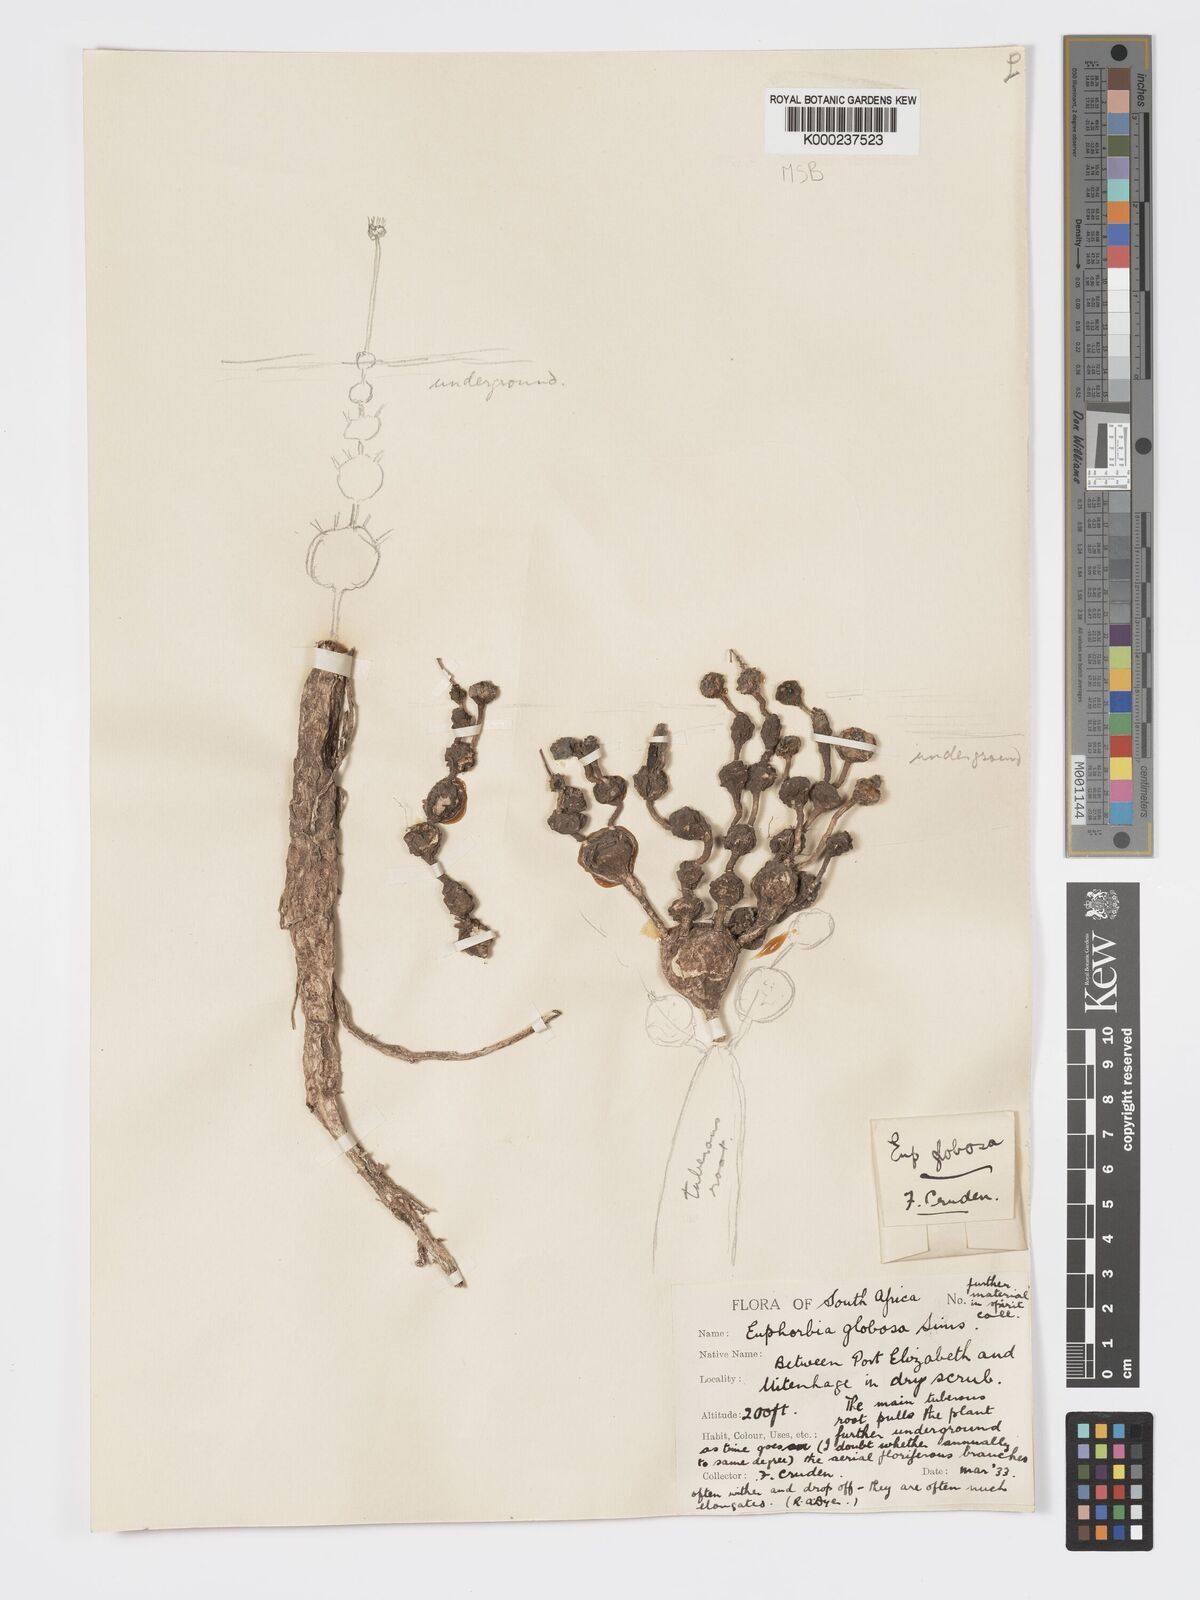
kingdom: Plantae
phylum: Tracheophyta
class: Magnoliopsida
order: Malpighiales
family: Euphorbiaceae
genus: Euphorbia
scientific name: Euphorbia globosa
